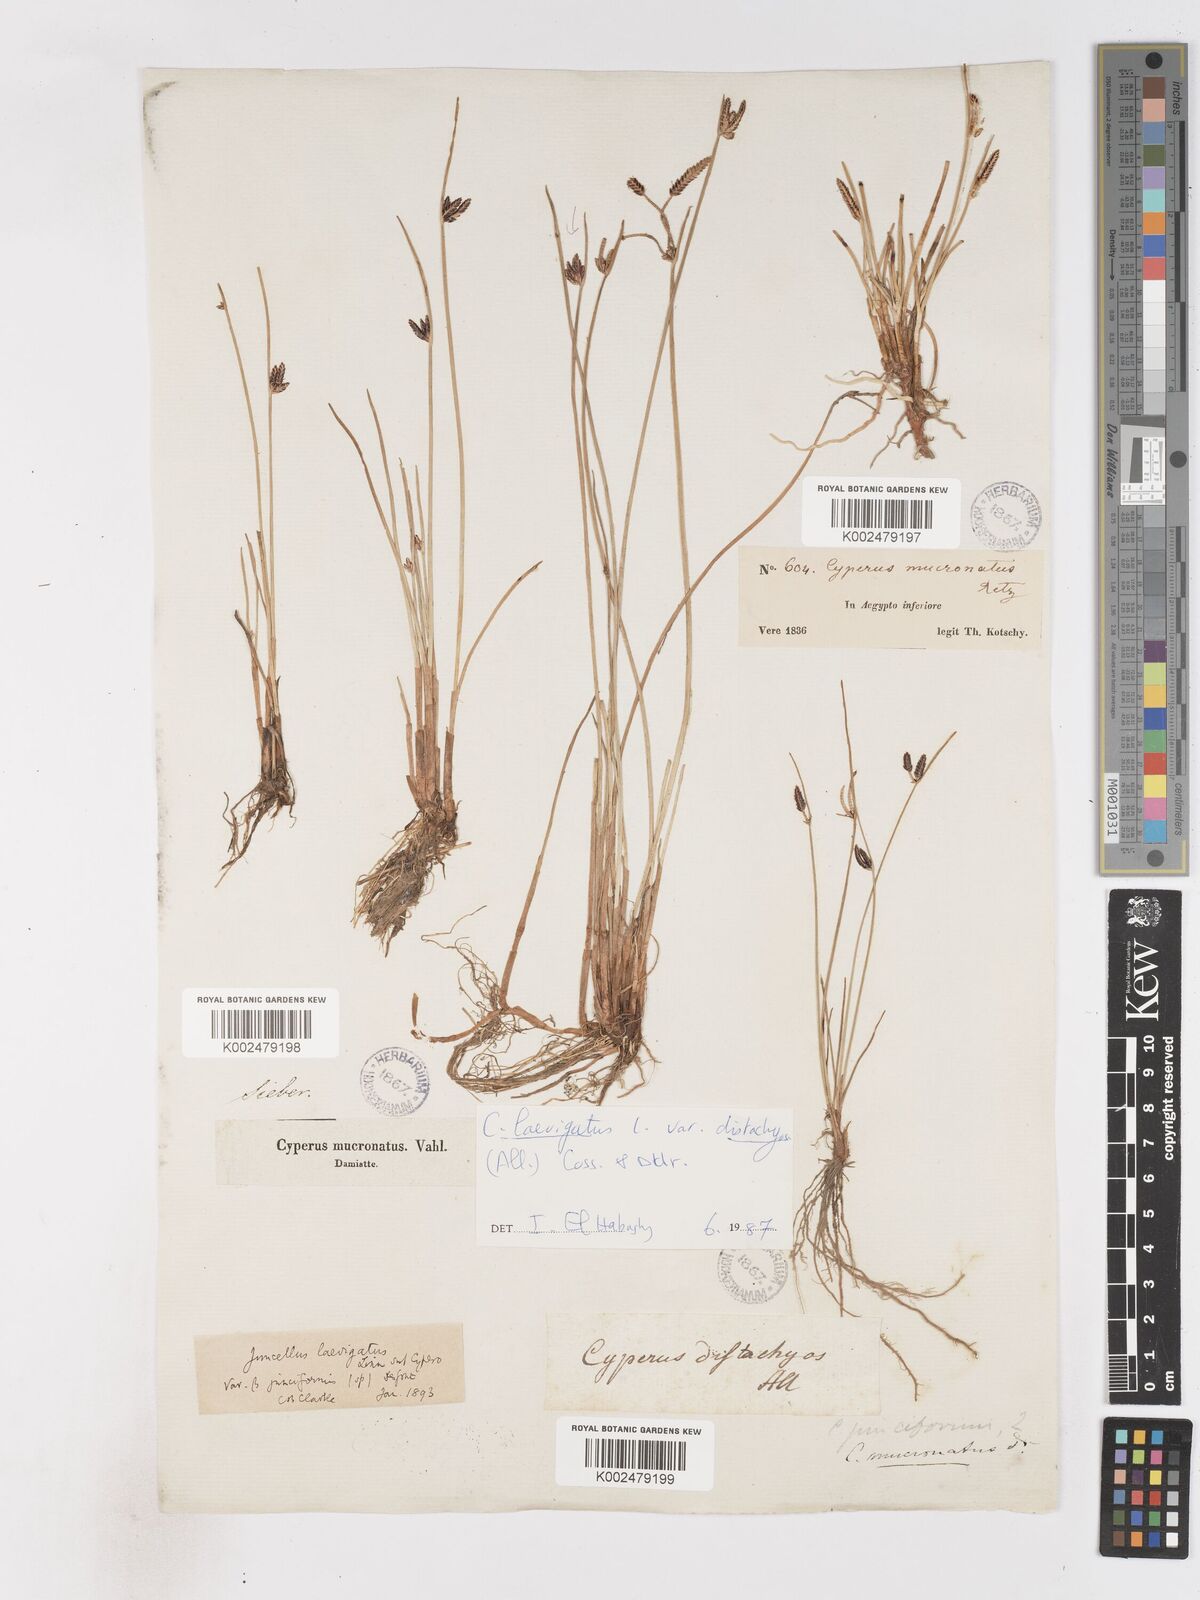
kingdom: Plantae
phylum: Tracheophyta
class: Liliopsida
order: Poales
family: Cyperaceae
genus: Cyperus
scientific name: Cyperus laevigatus
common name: Smooth flat sedge
